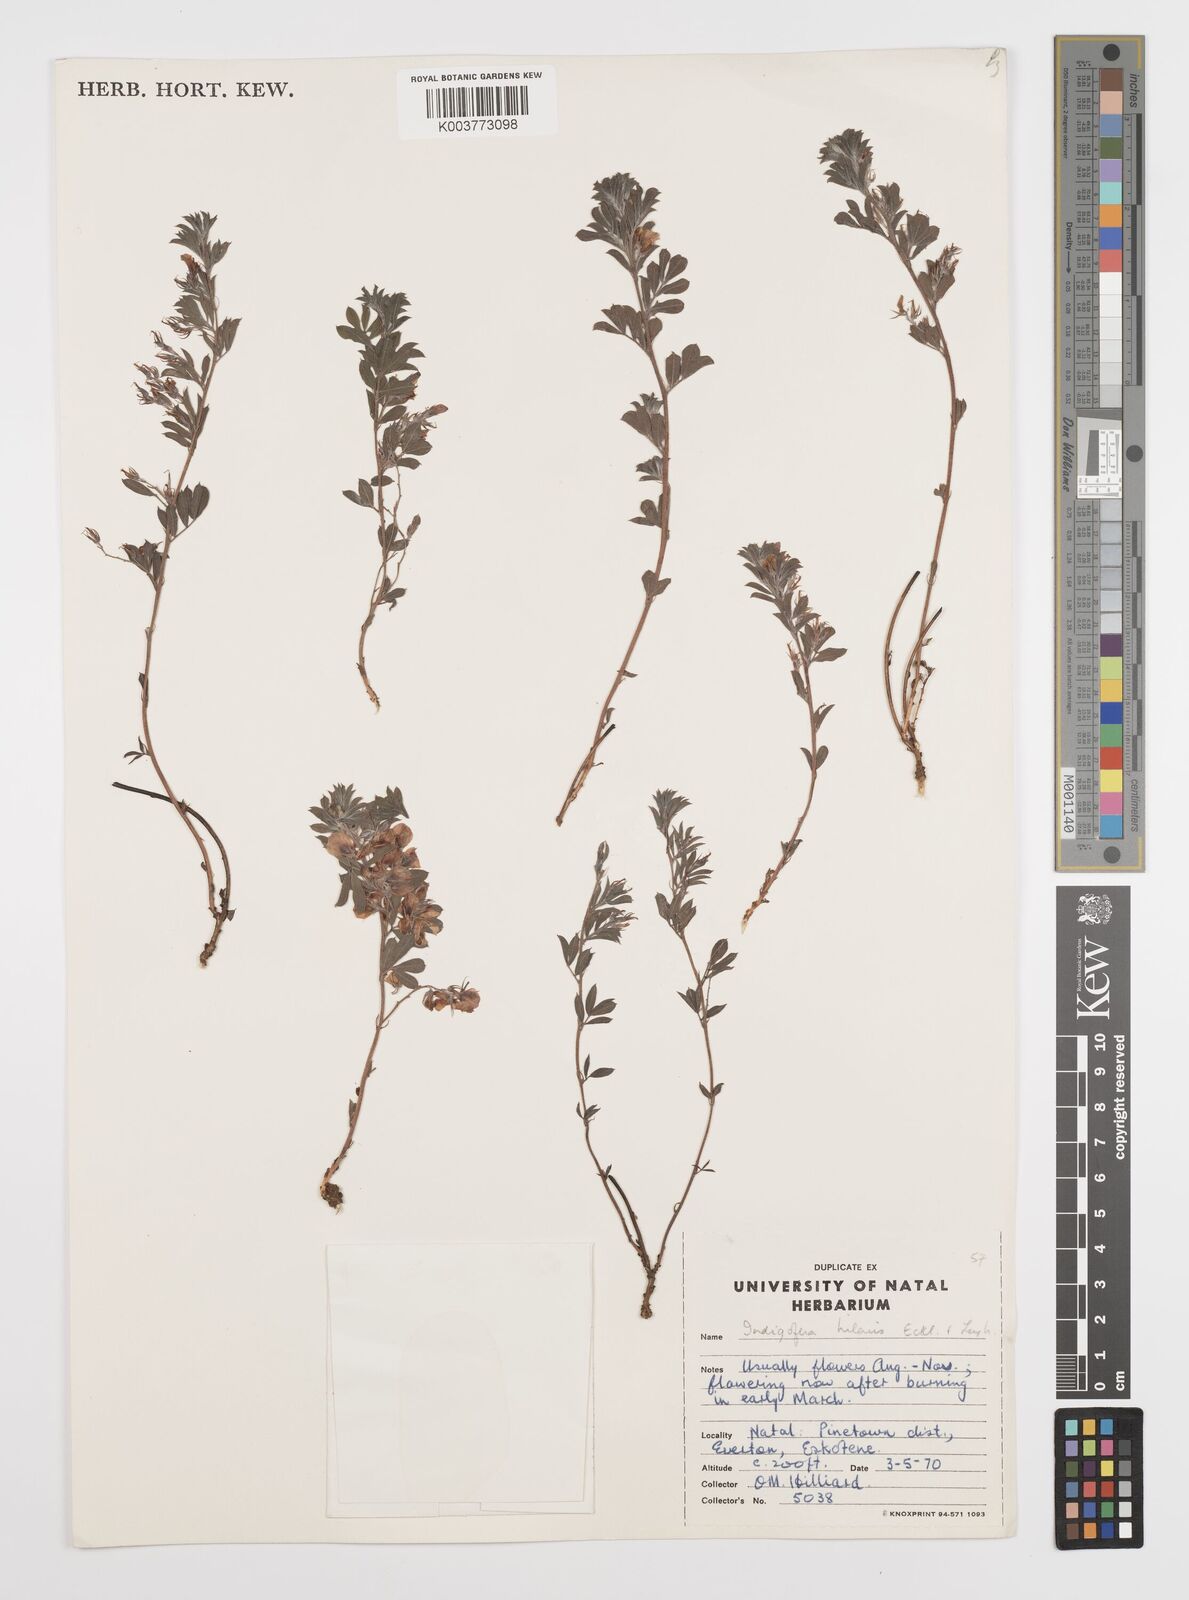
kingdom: Plantae
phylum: Tracheophyta
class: Magnoliopsida
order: Fabales
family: Fabaceae
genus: Indigofera
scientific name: Indigofera
